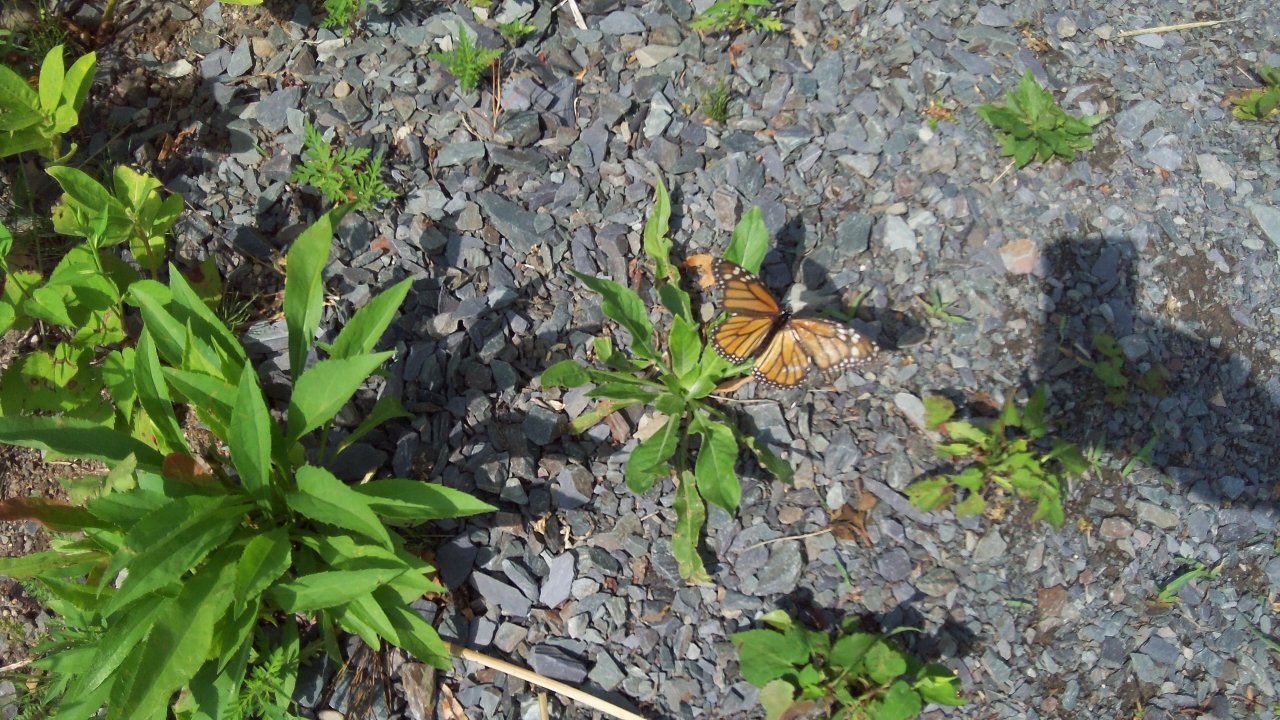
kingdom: Animalia
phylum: Arthropoda
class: Insecta
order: Lepidoptera
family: Nymphalidae
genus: Danaus
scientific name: Danaus plexippus
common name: Monarch
